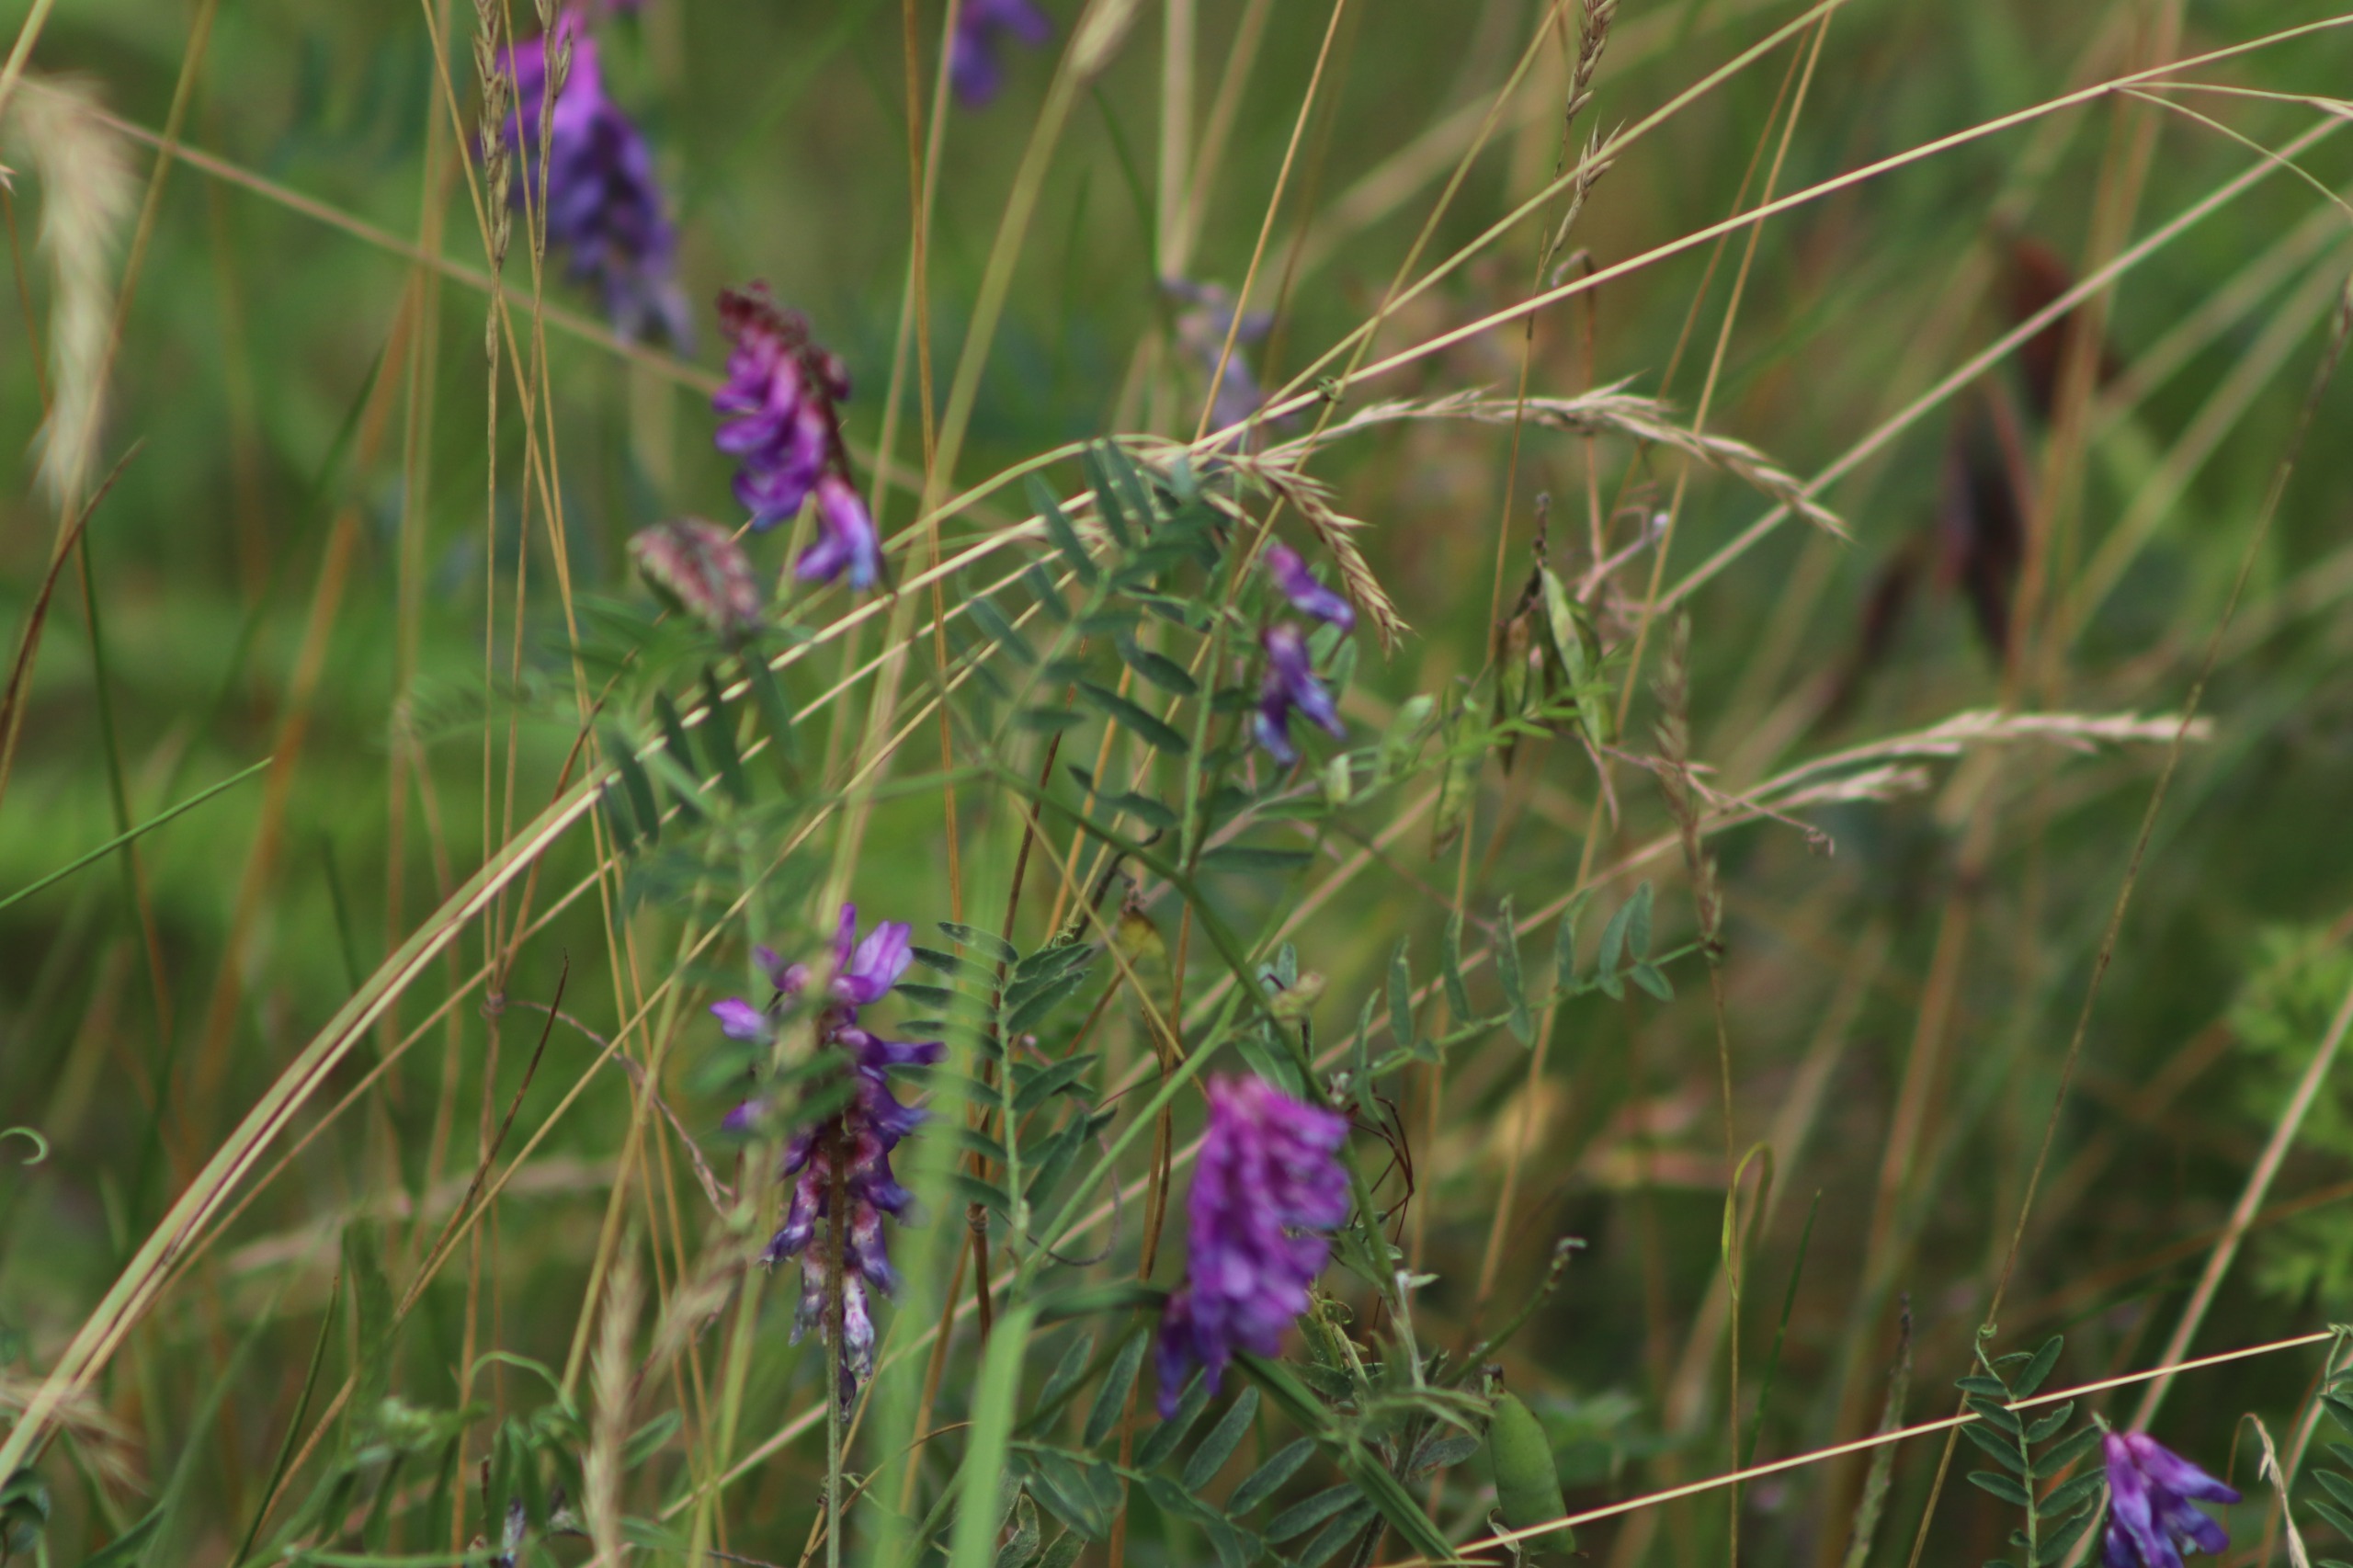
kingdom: Plantae
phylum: Tracheophyta
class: Magnoliopsida
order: Fabales
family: Fabaceae
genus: Vicia
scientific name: Vicia cracca
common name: Muse-vikke
